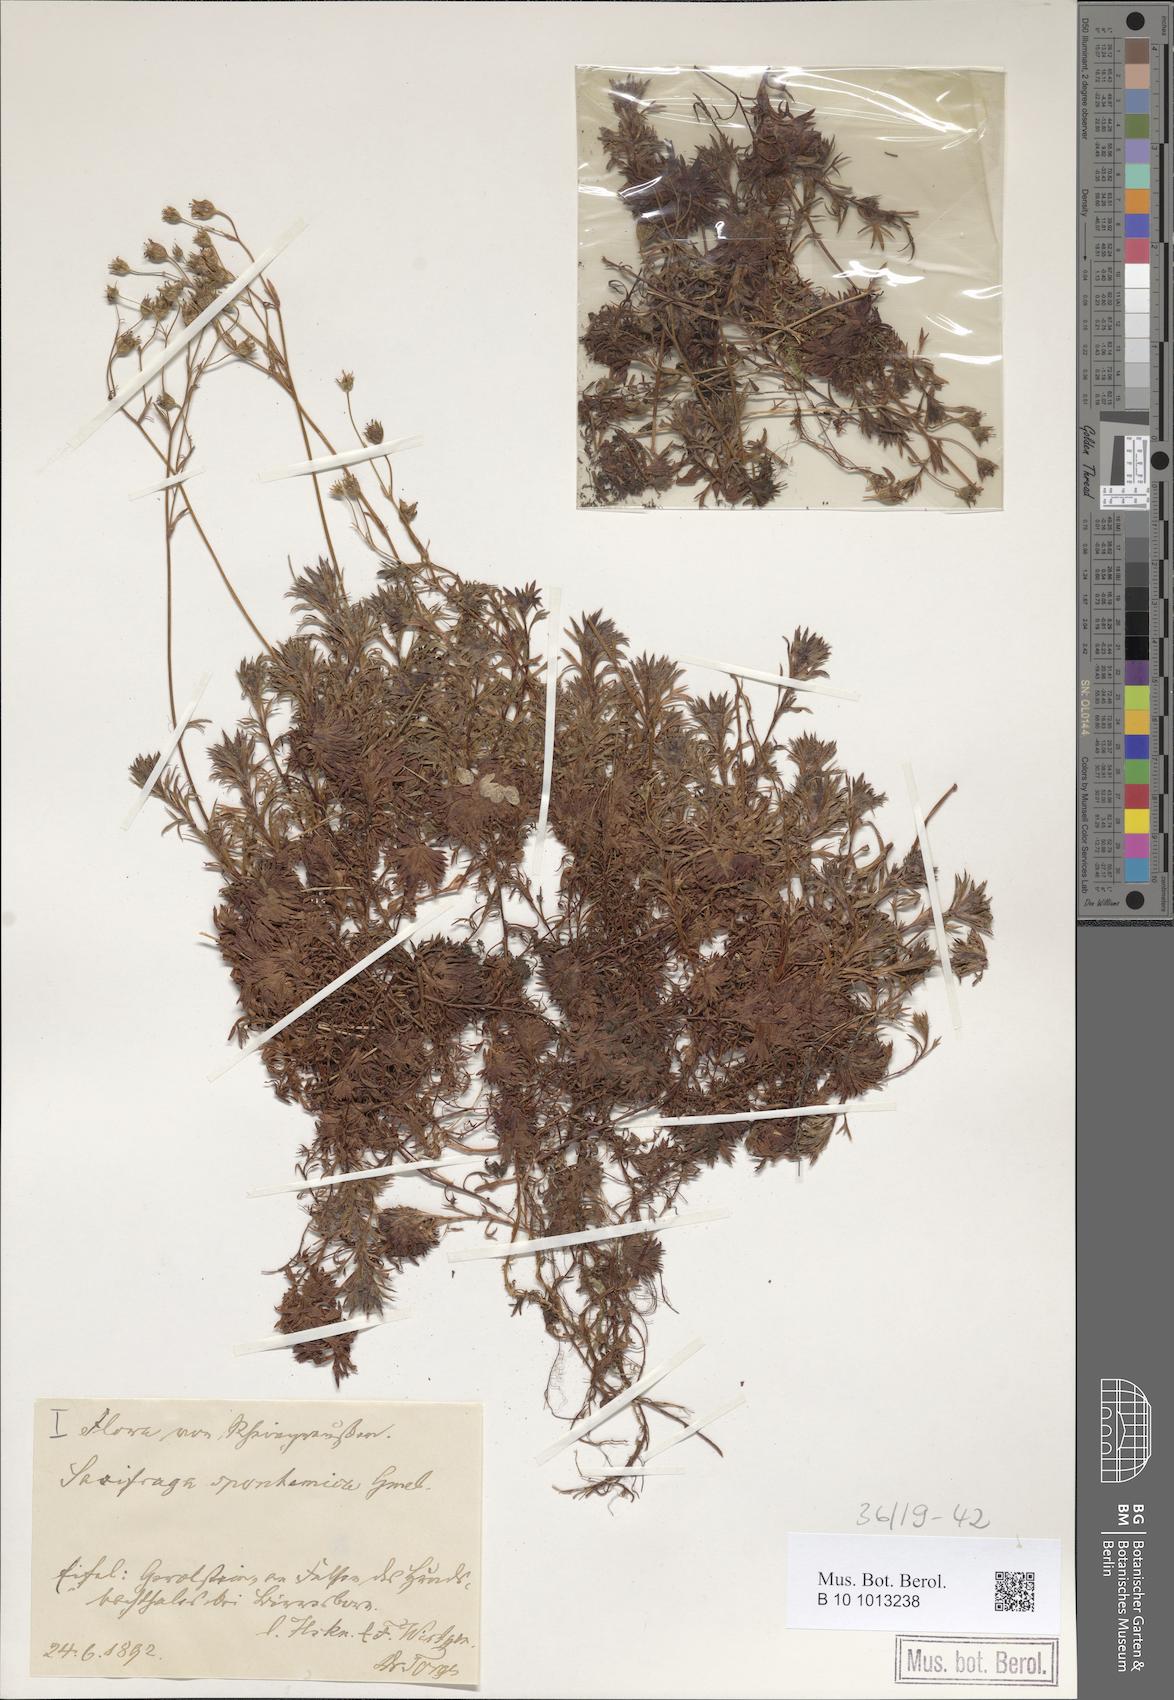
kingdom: Plantae
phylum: Tracheophyta
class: Magnoliopsida
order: Saxifragales
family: Saxifragaceae
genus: Saxifraga
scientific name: Saxifraga rosacea
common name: Irish saxifrage
